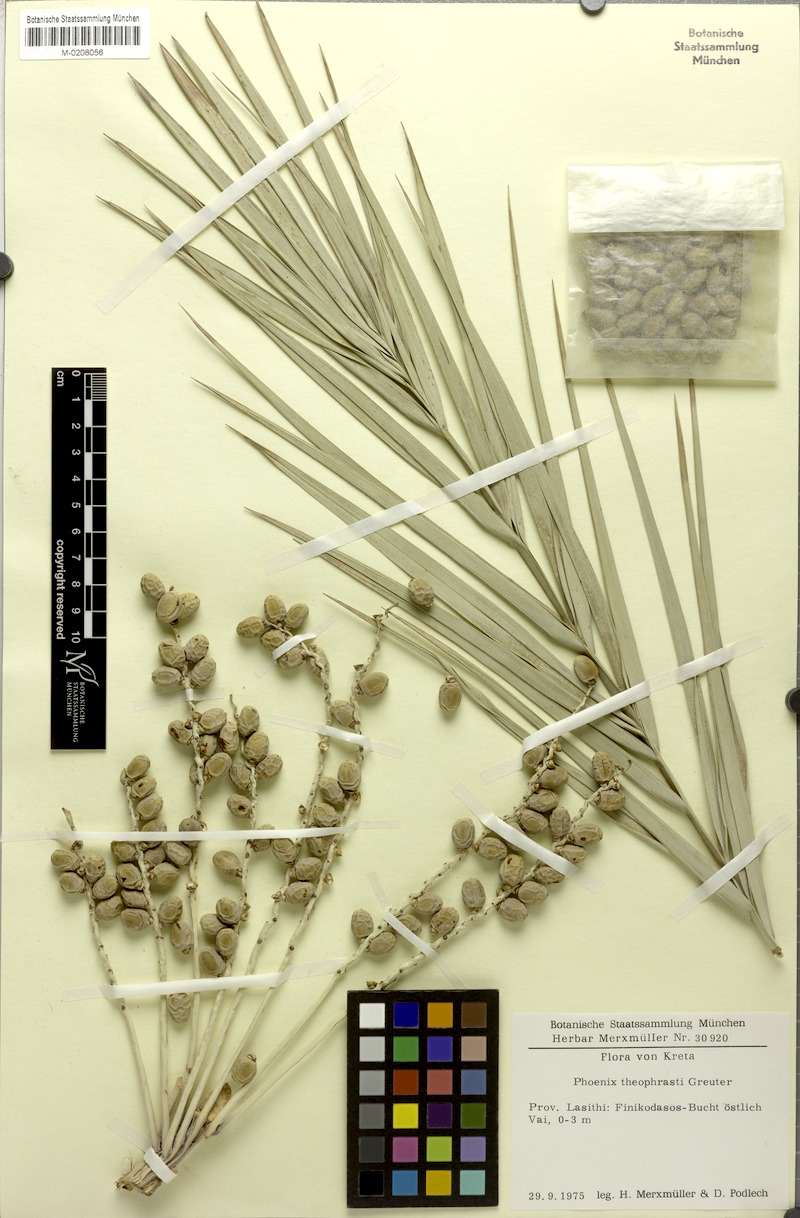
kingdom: Plantae
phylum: Tracheophyta
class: Liliopsida
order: Arecales
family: Arecaceae
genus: Phoenix
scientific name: Phoenix theophrasti
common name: Cretan date palm
